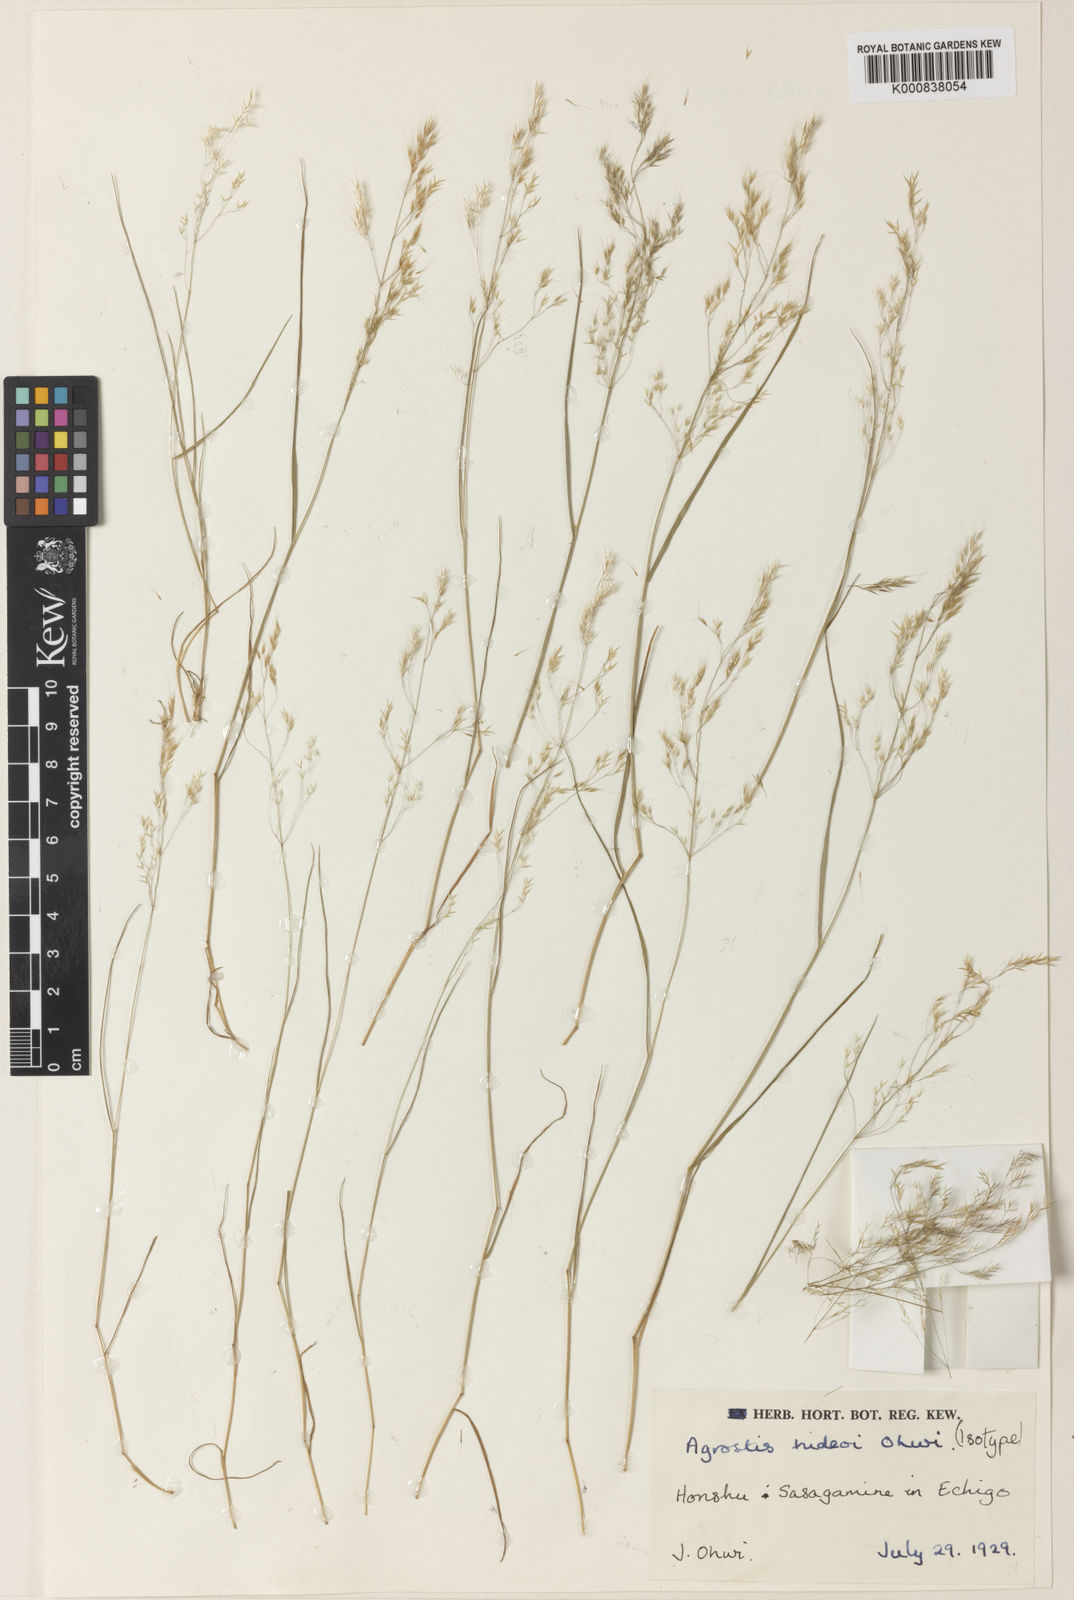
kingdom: Plantae
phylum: Tracheophyta
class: Liliopsida
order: Poales
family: Poaceae
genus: Agrostis
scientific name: Agrostis hideoi
